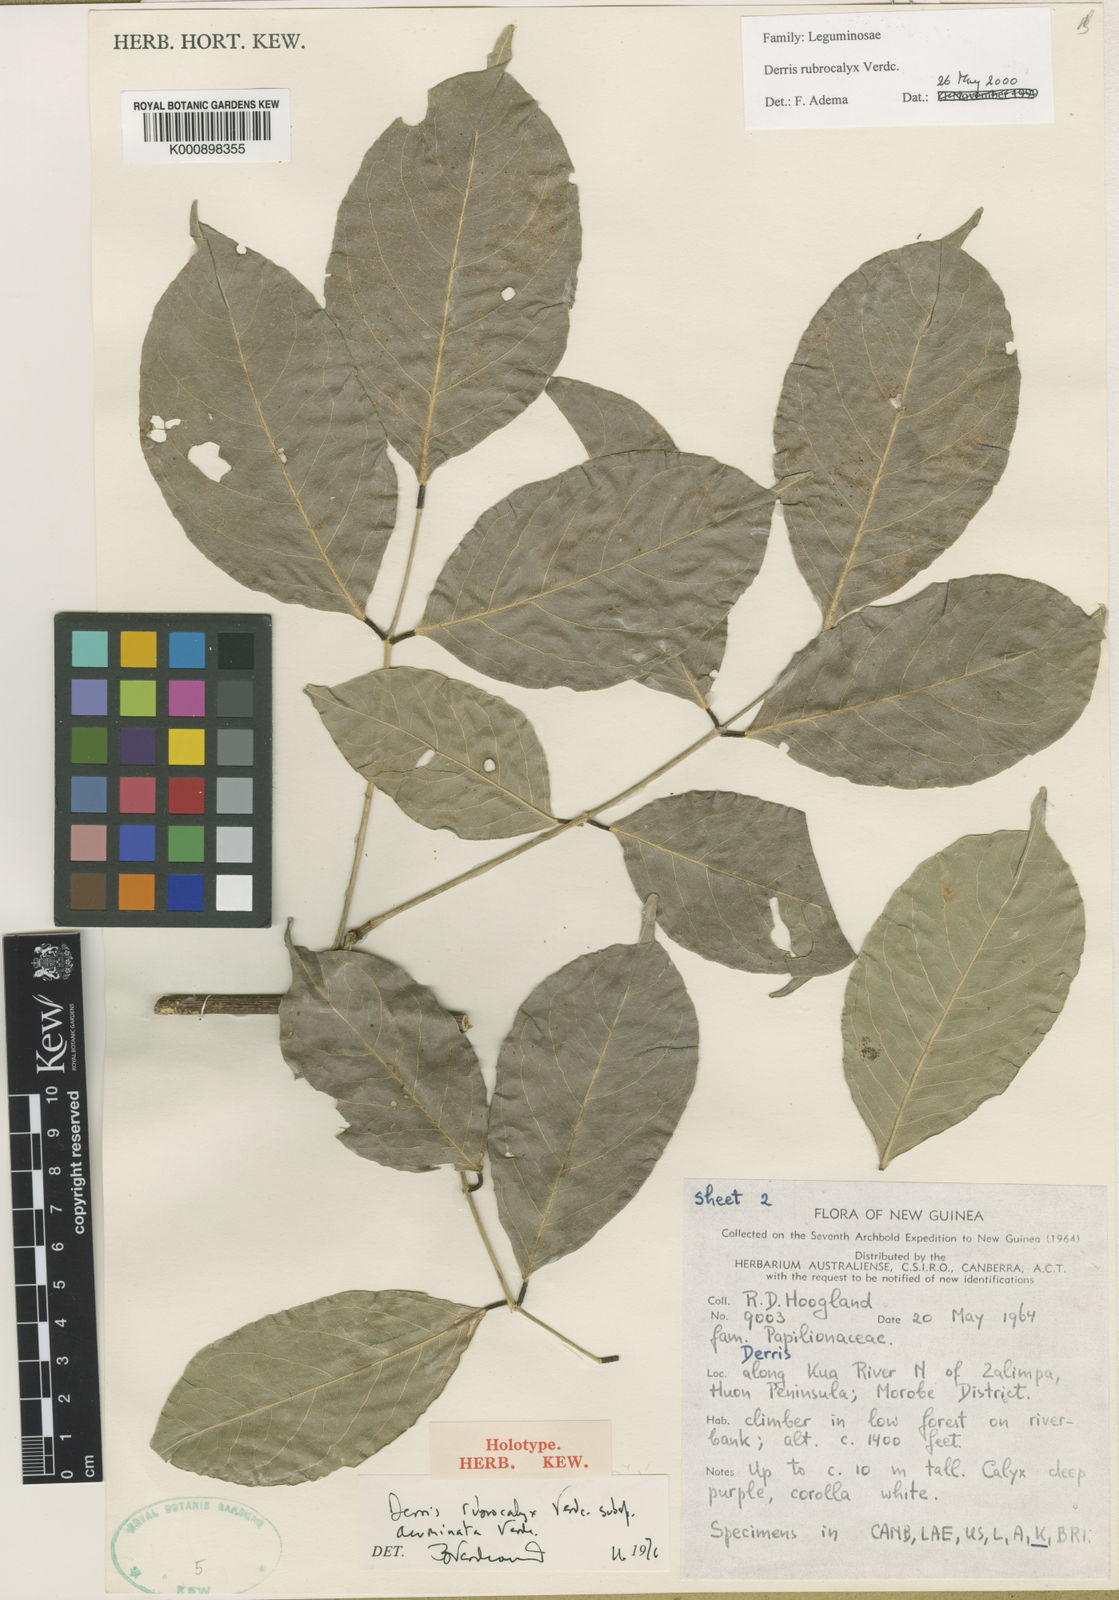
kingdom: Plantae
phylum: Tracheophyta
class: Magnoliopsida
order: Fabales
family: Fabaceae
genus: Derris
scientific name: Derris rubrocalyx
